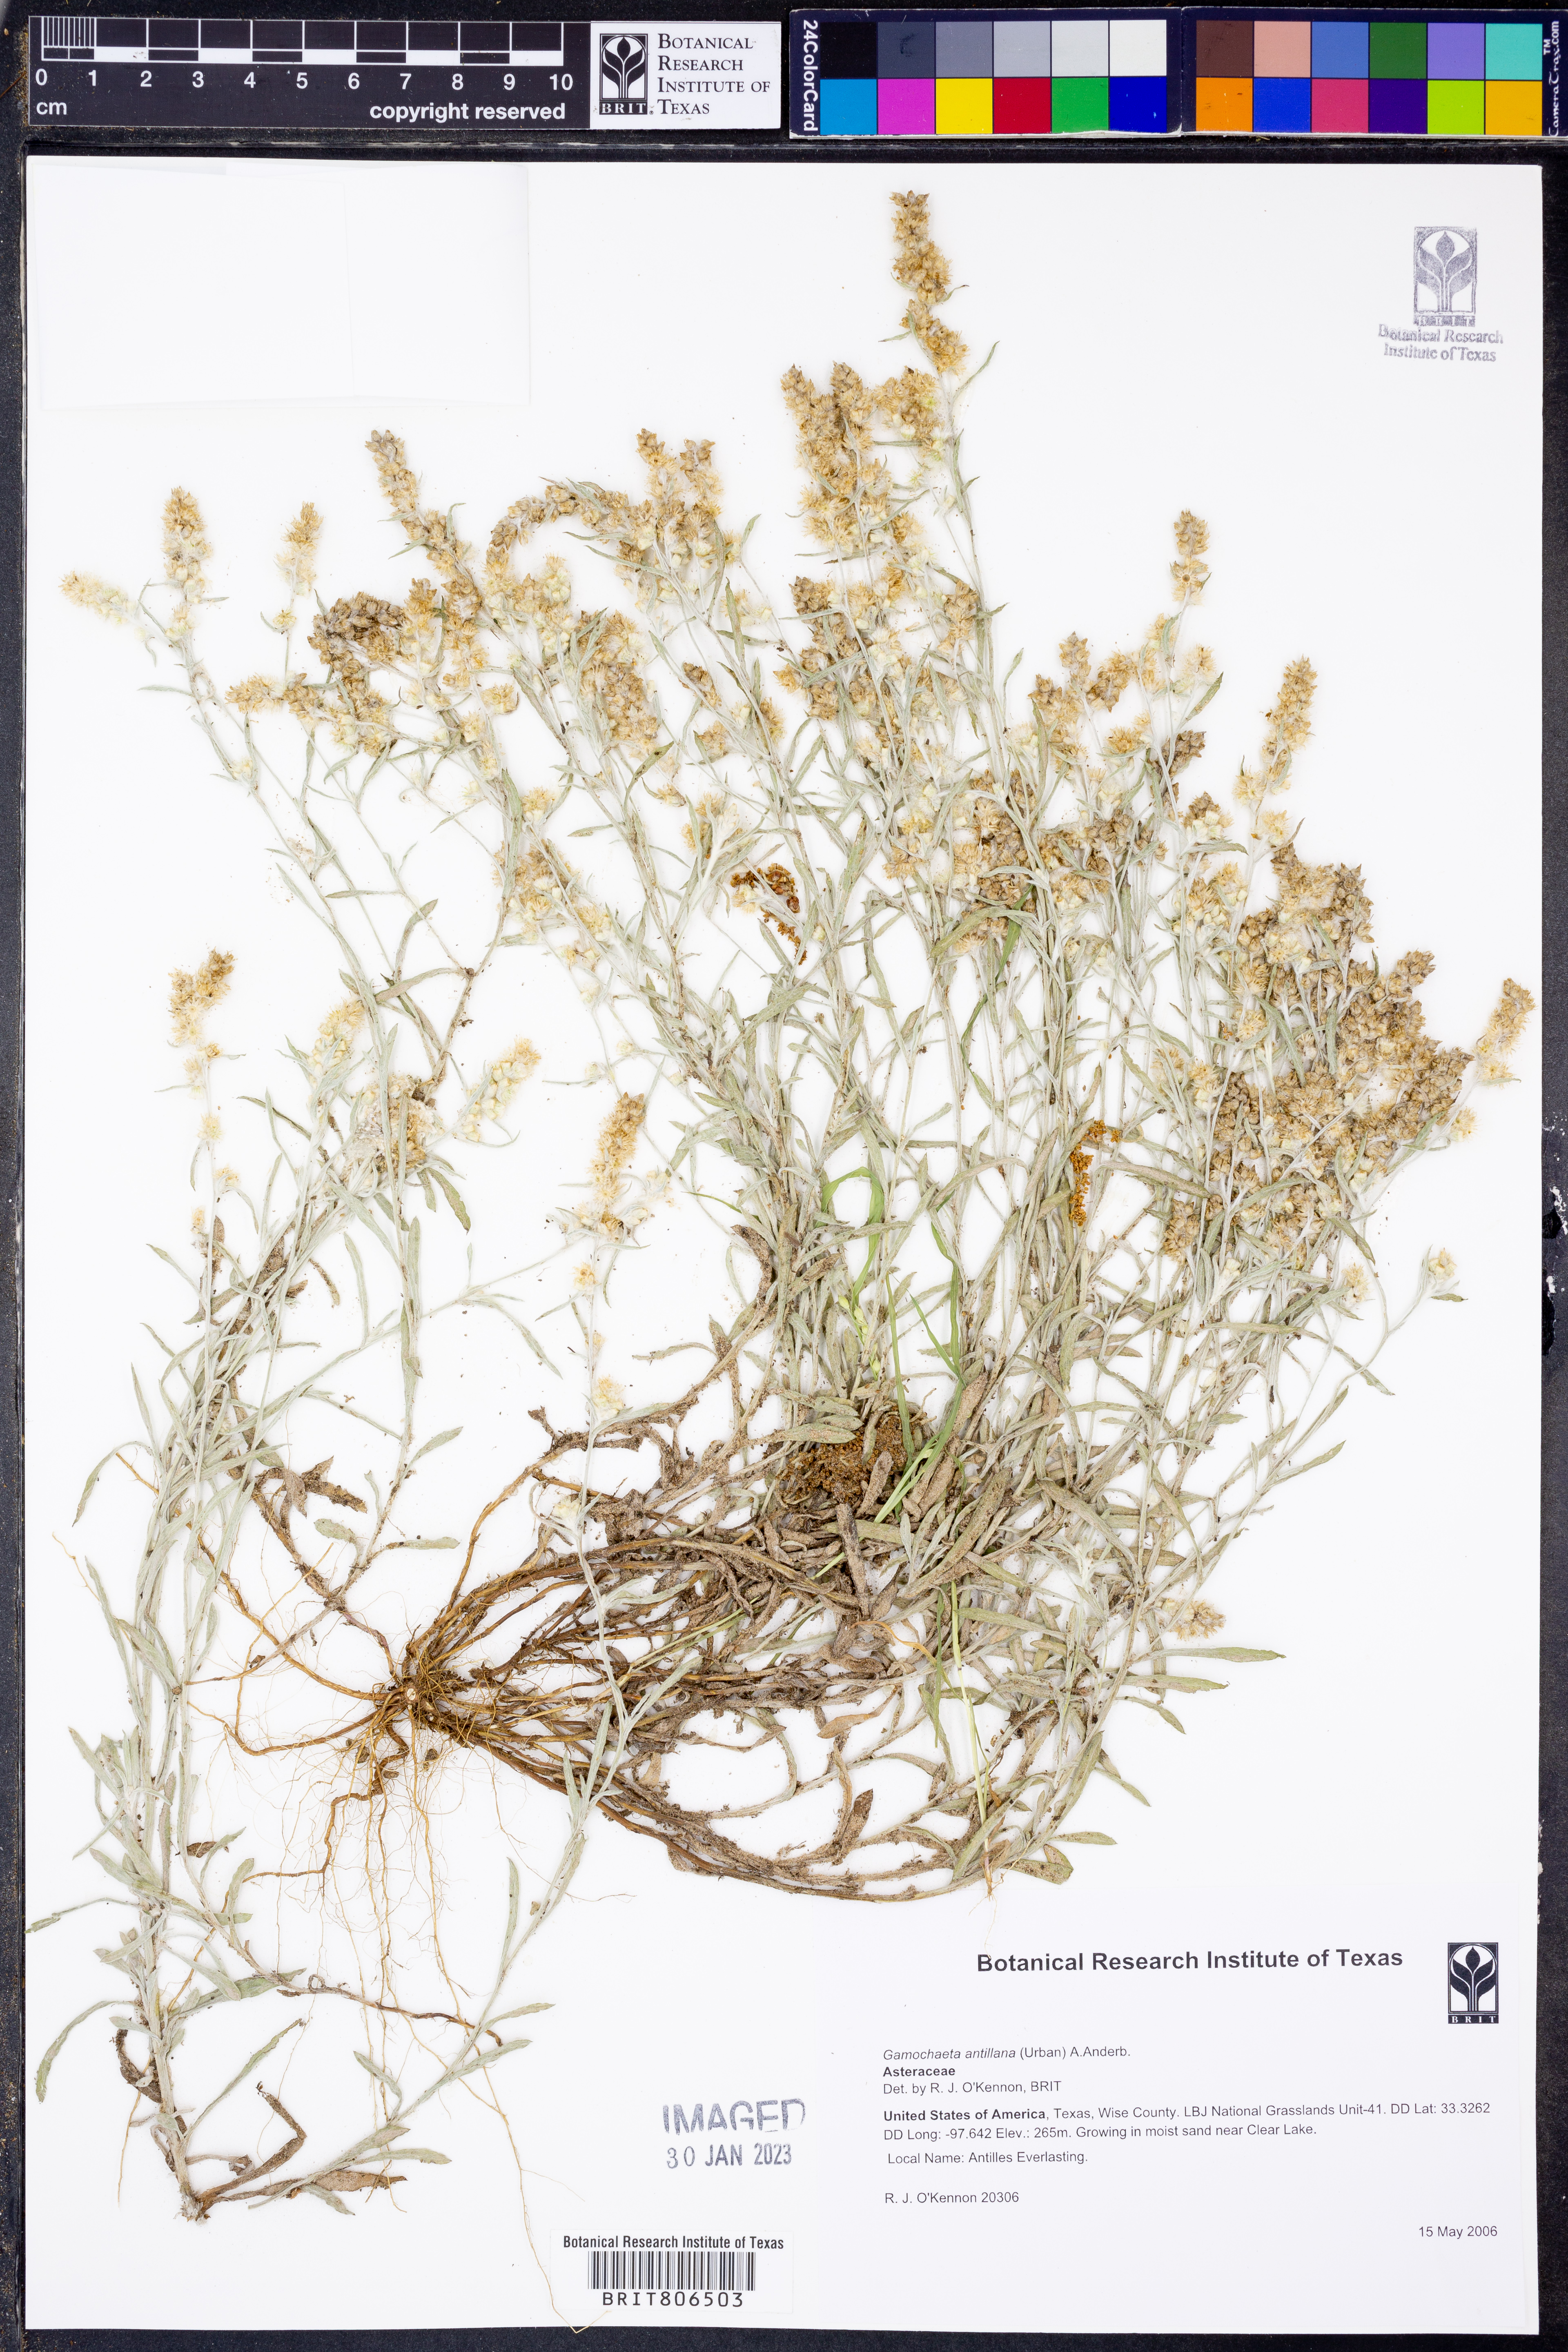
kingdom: Plantae
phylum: Tracheophyta
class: Magnoliopsida
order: Asterales
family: Asteraceae
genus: Gamochaeta
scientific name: Gamochaeta antillana
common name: Delicate everlasting
